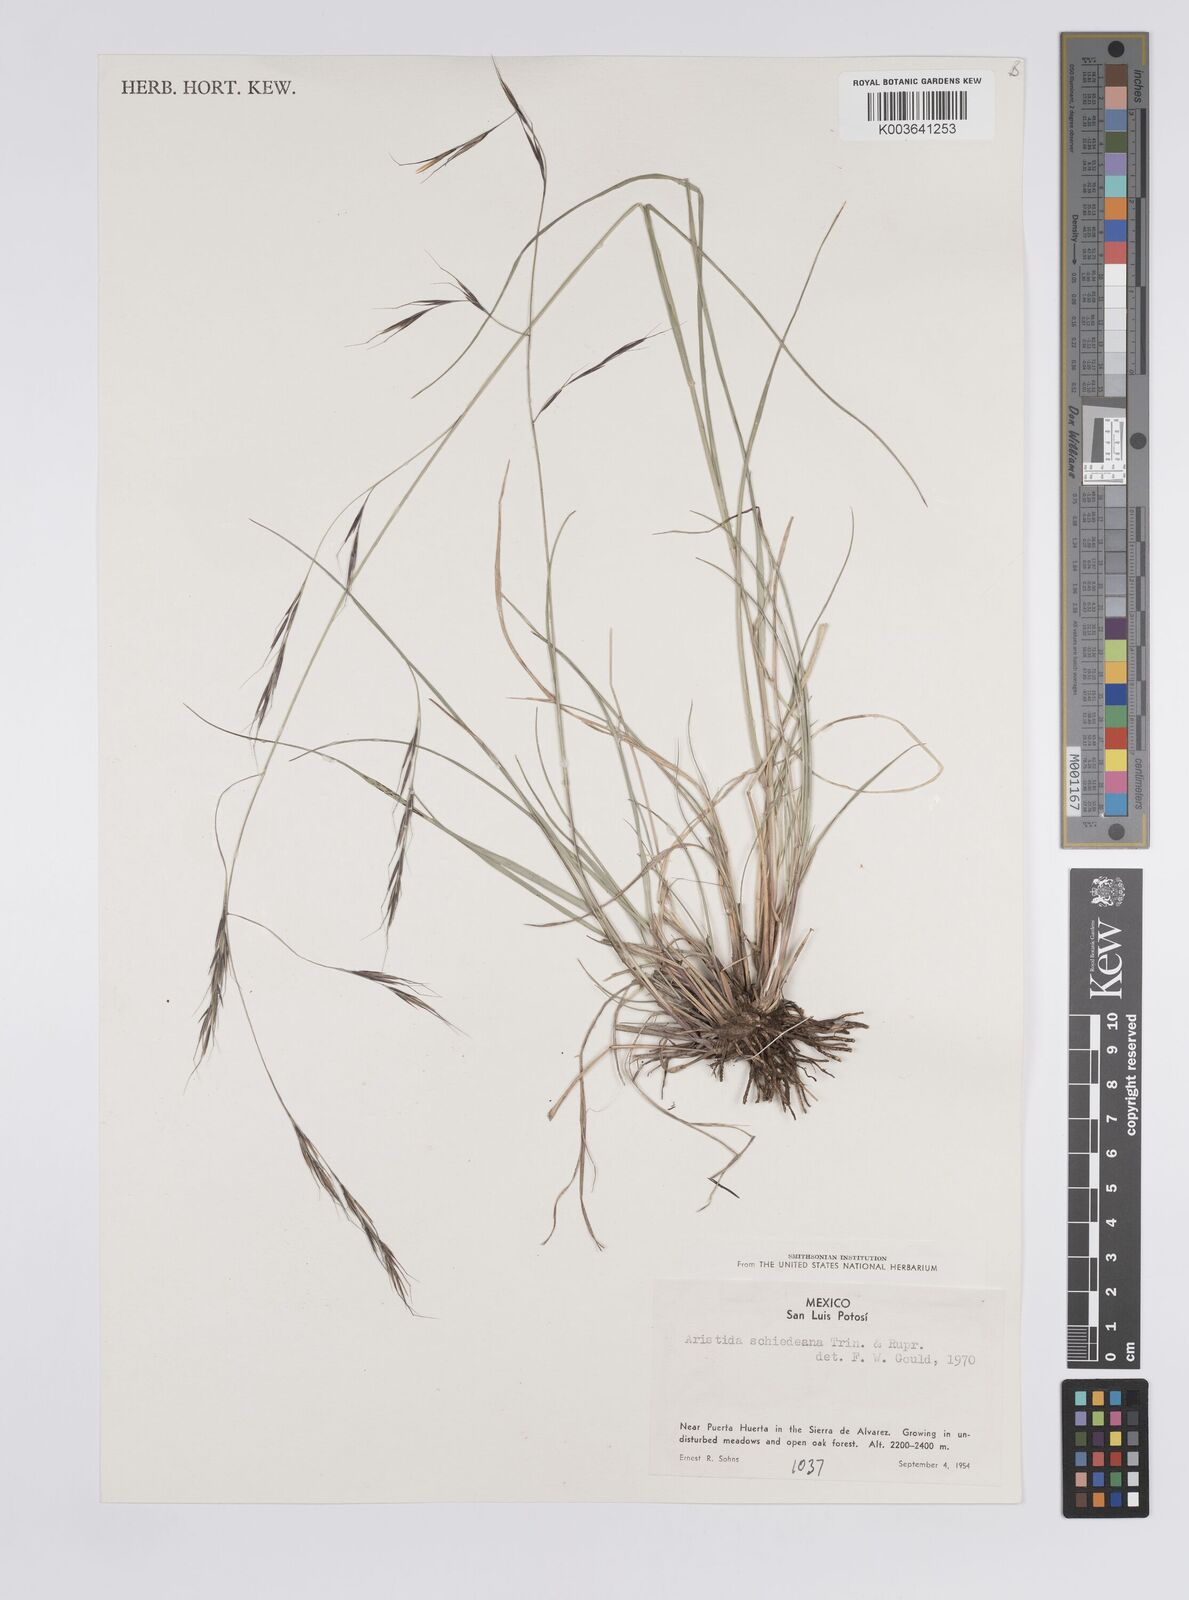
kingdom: Plantae
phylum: Tracheophyta
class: Liliopsida
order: Poales
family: Poaceae
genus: Aristida
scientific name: Aristida schiedeana
